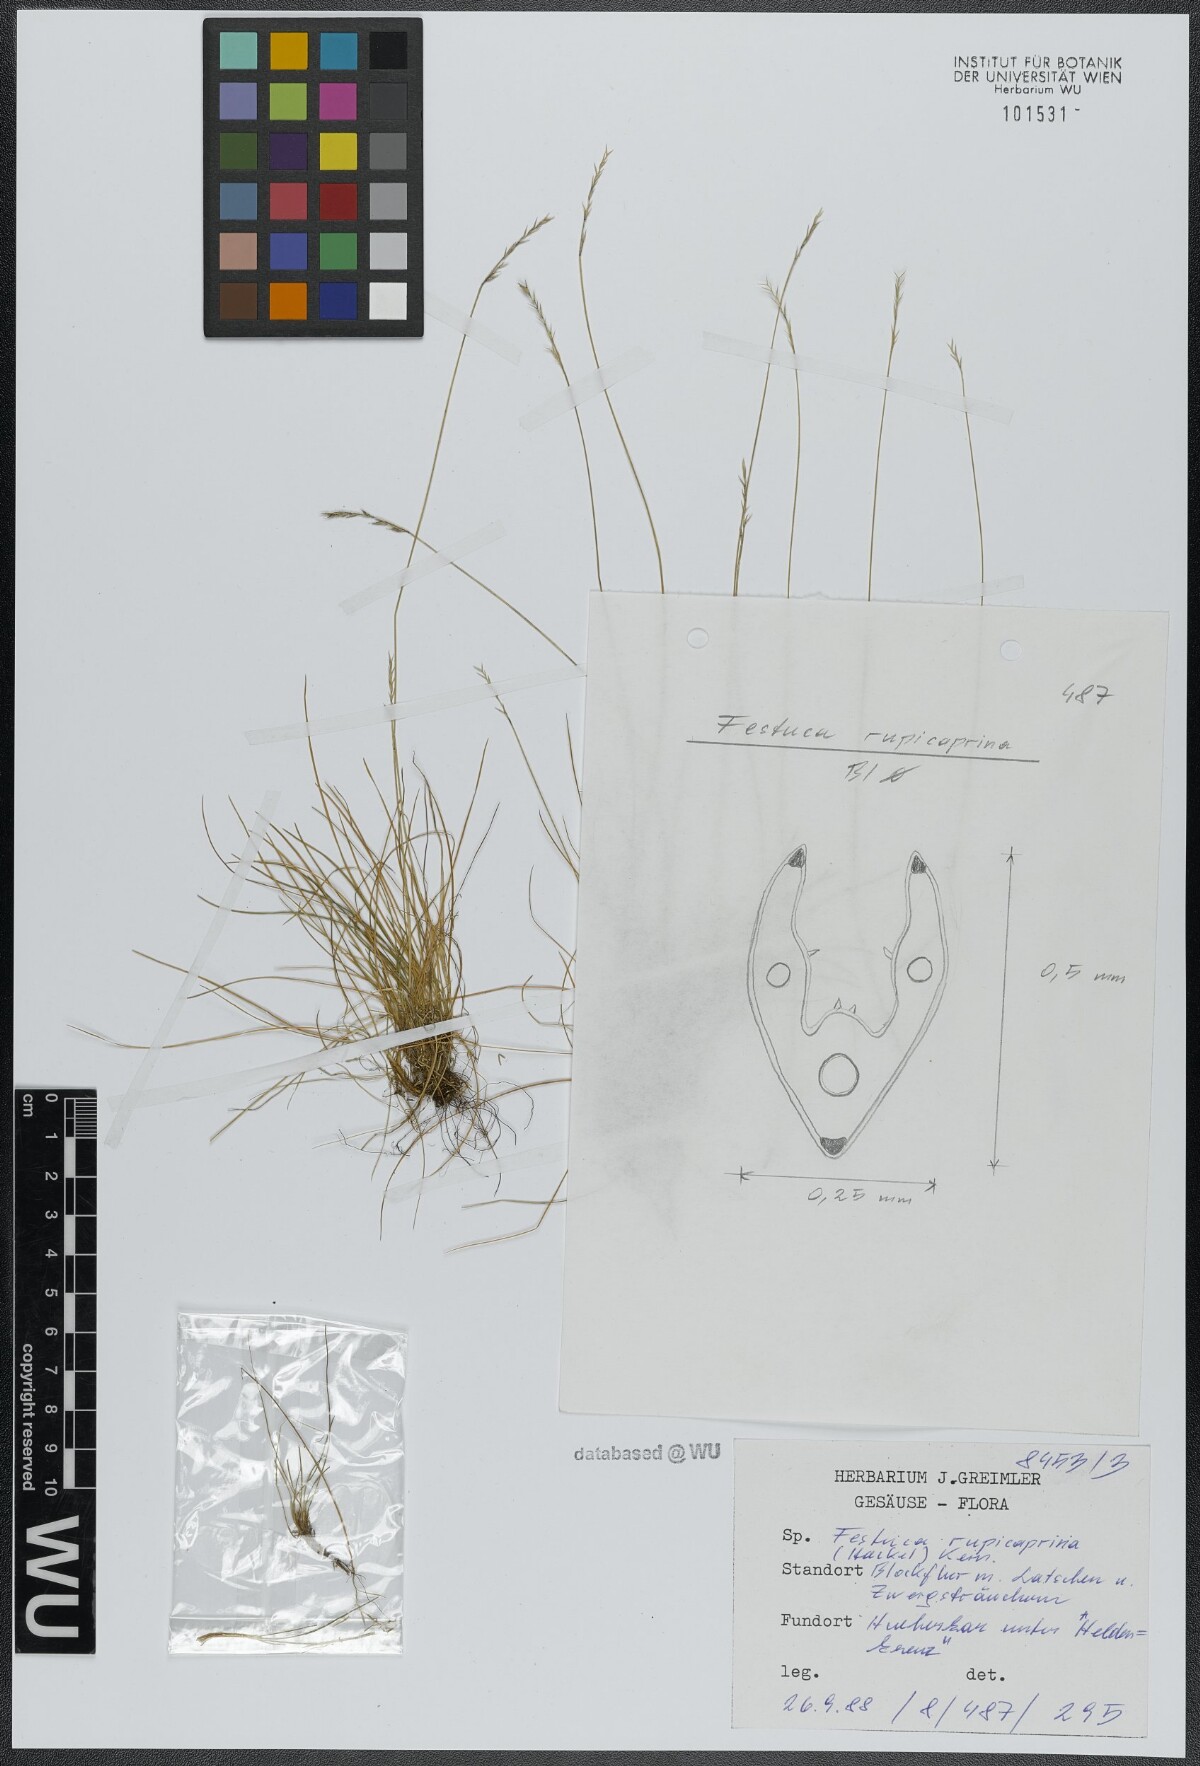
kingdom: Plantae
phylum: Tracheophyta
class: Liliopsida
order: Poales
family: Poaceae
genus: Festuca
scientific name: Festuca rupicaprina
